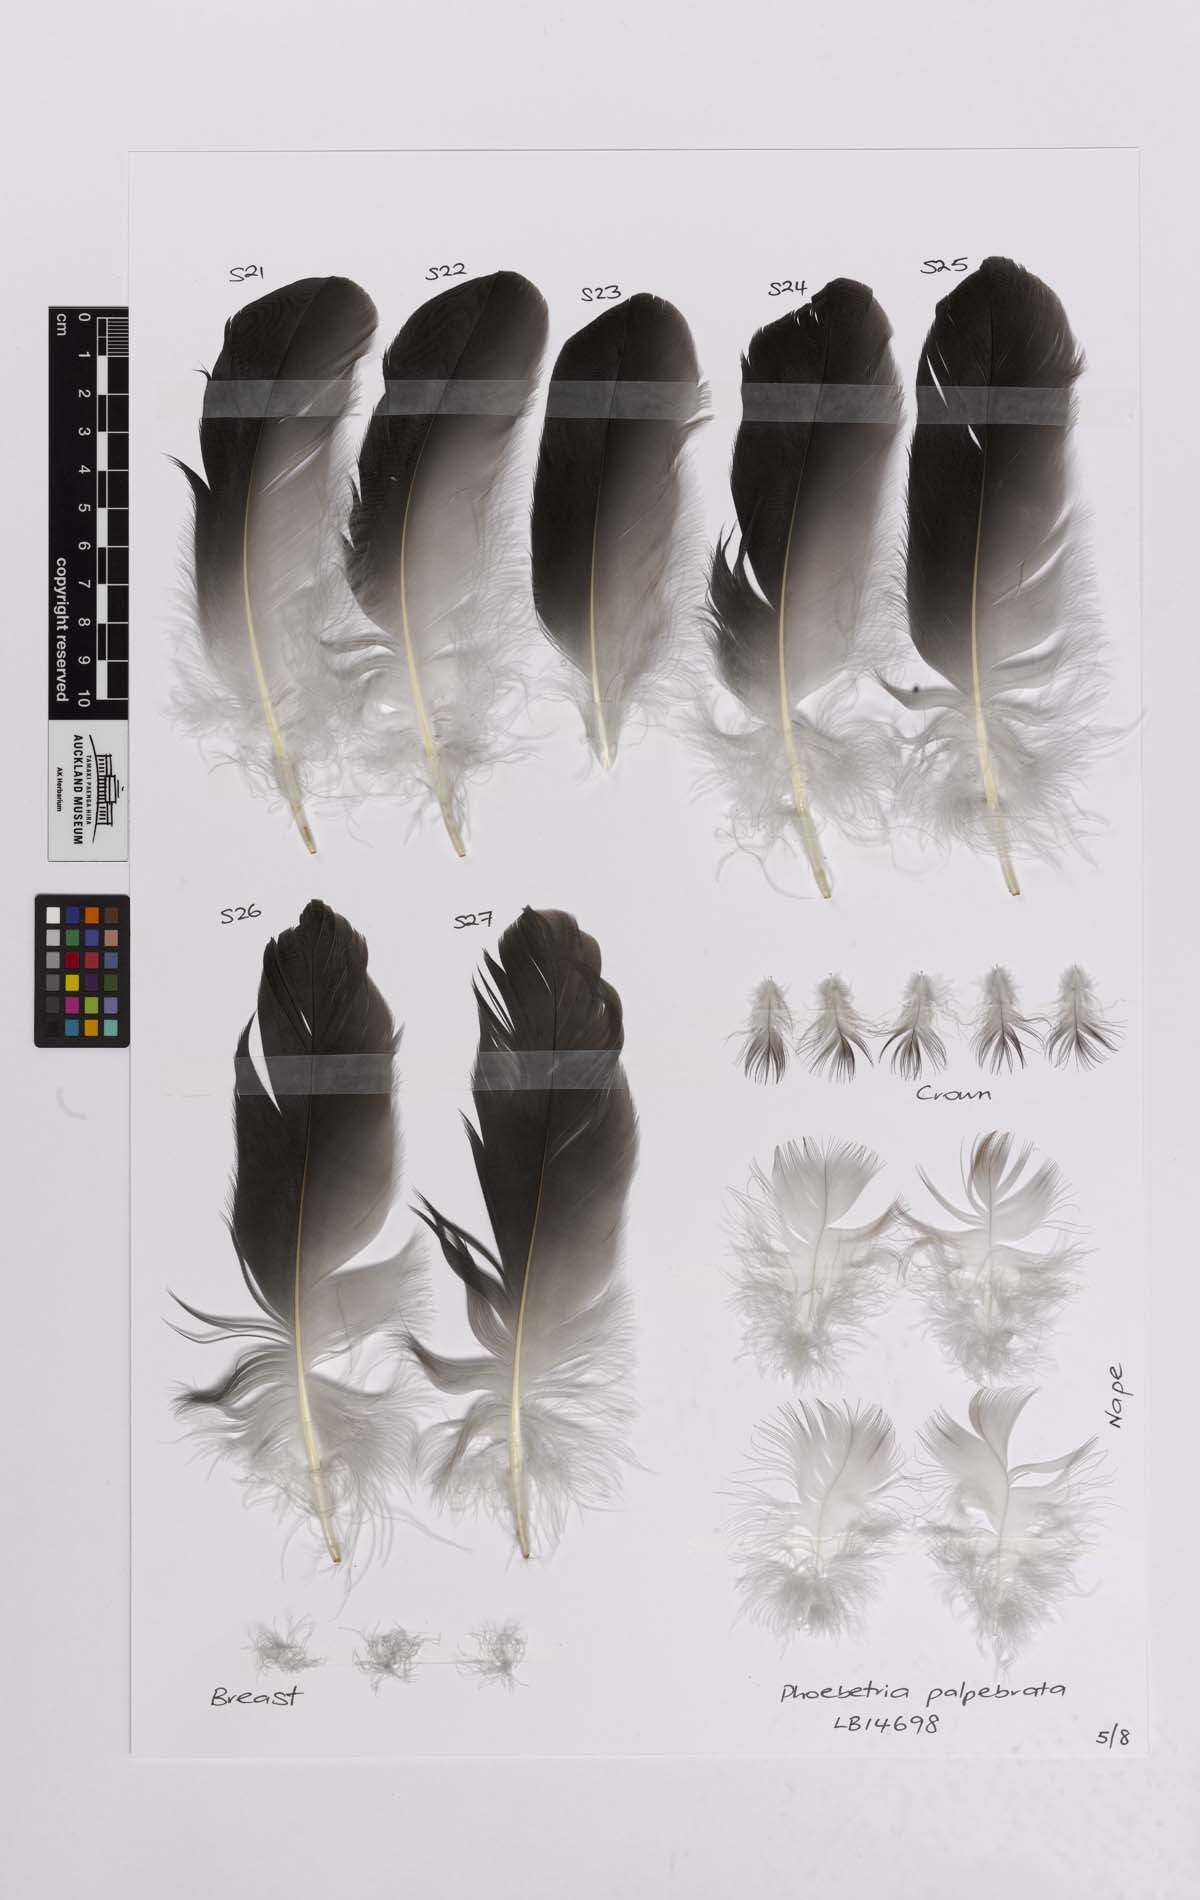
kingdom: Animalia
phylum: Chordata
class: Aves
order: Procellariiformes
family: Diomedeidae
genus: Phoebetria
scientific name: Phoebetria palpebrata
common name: Light-mantled albatross
